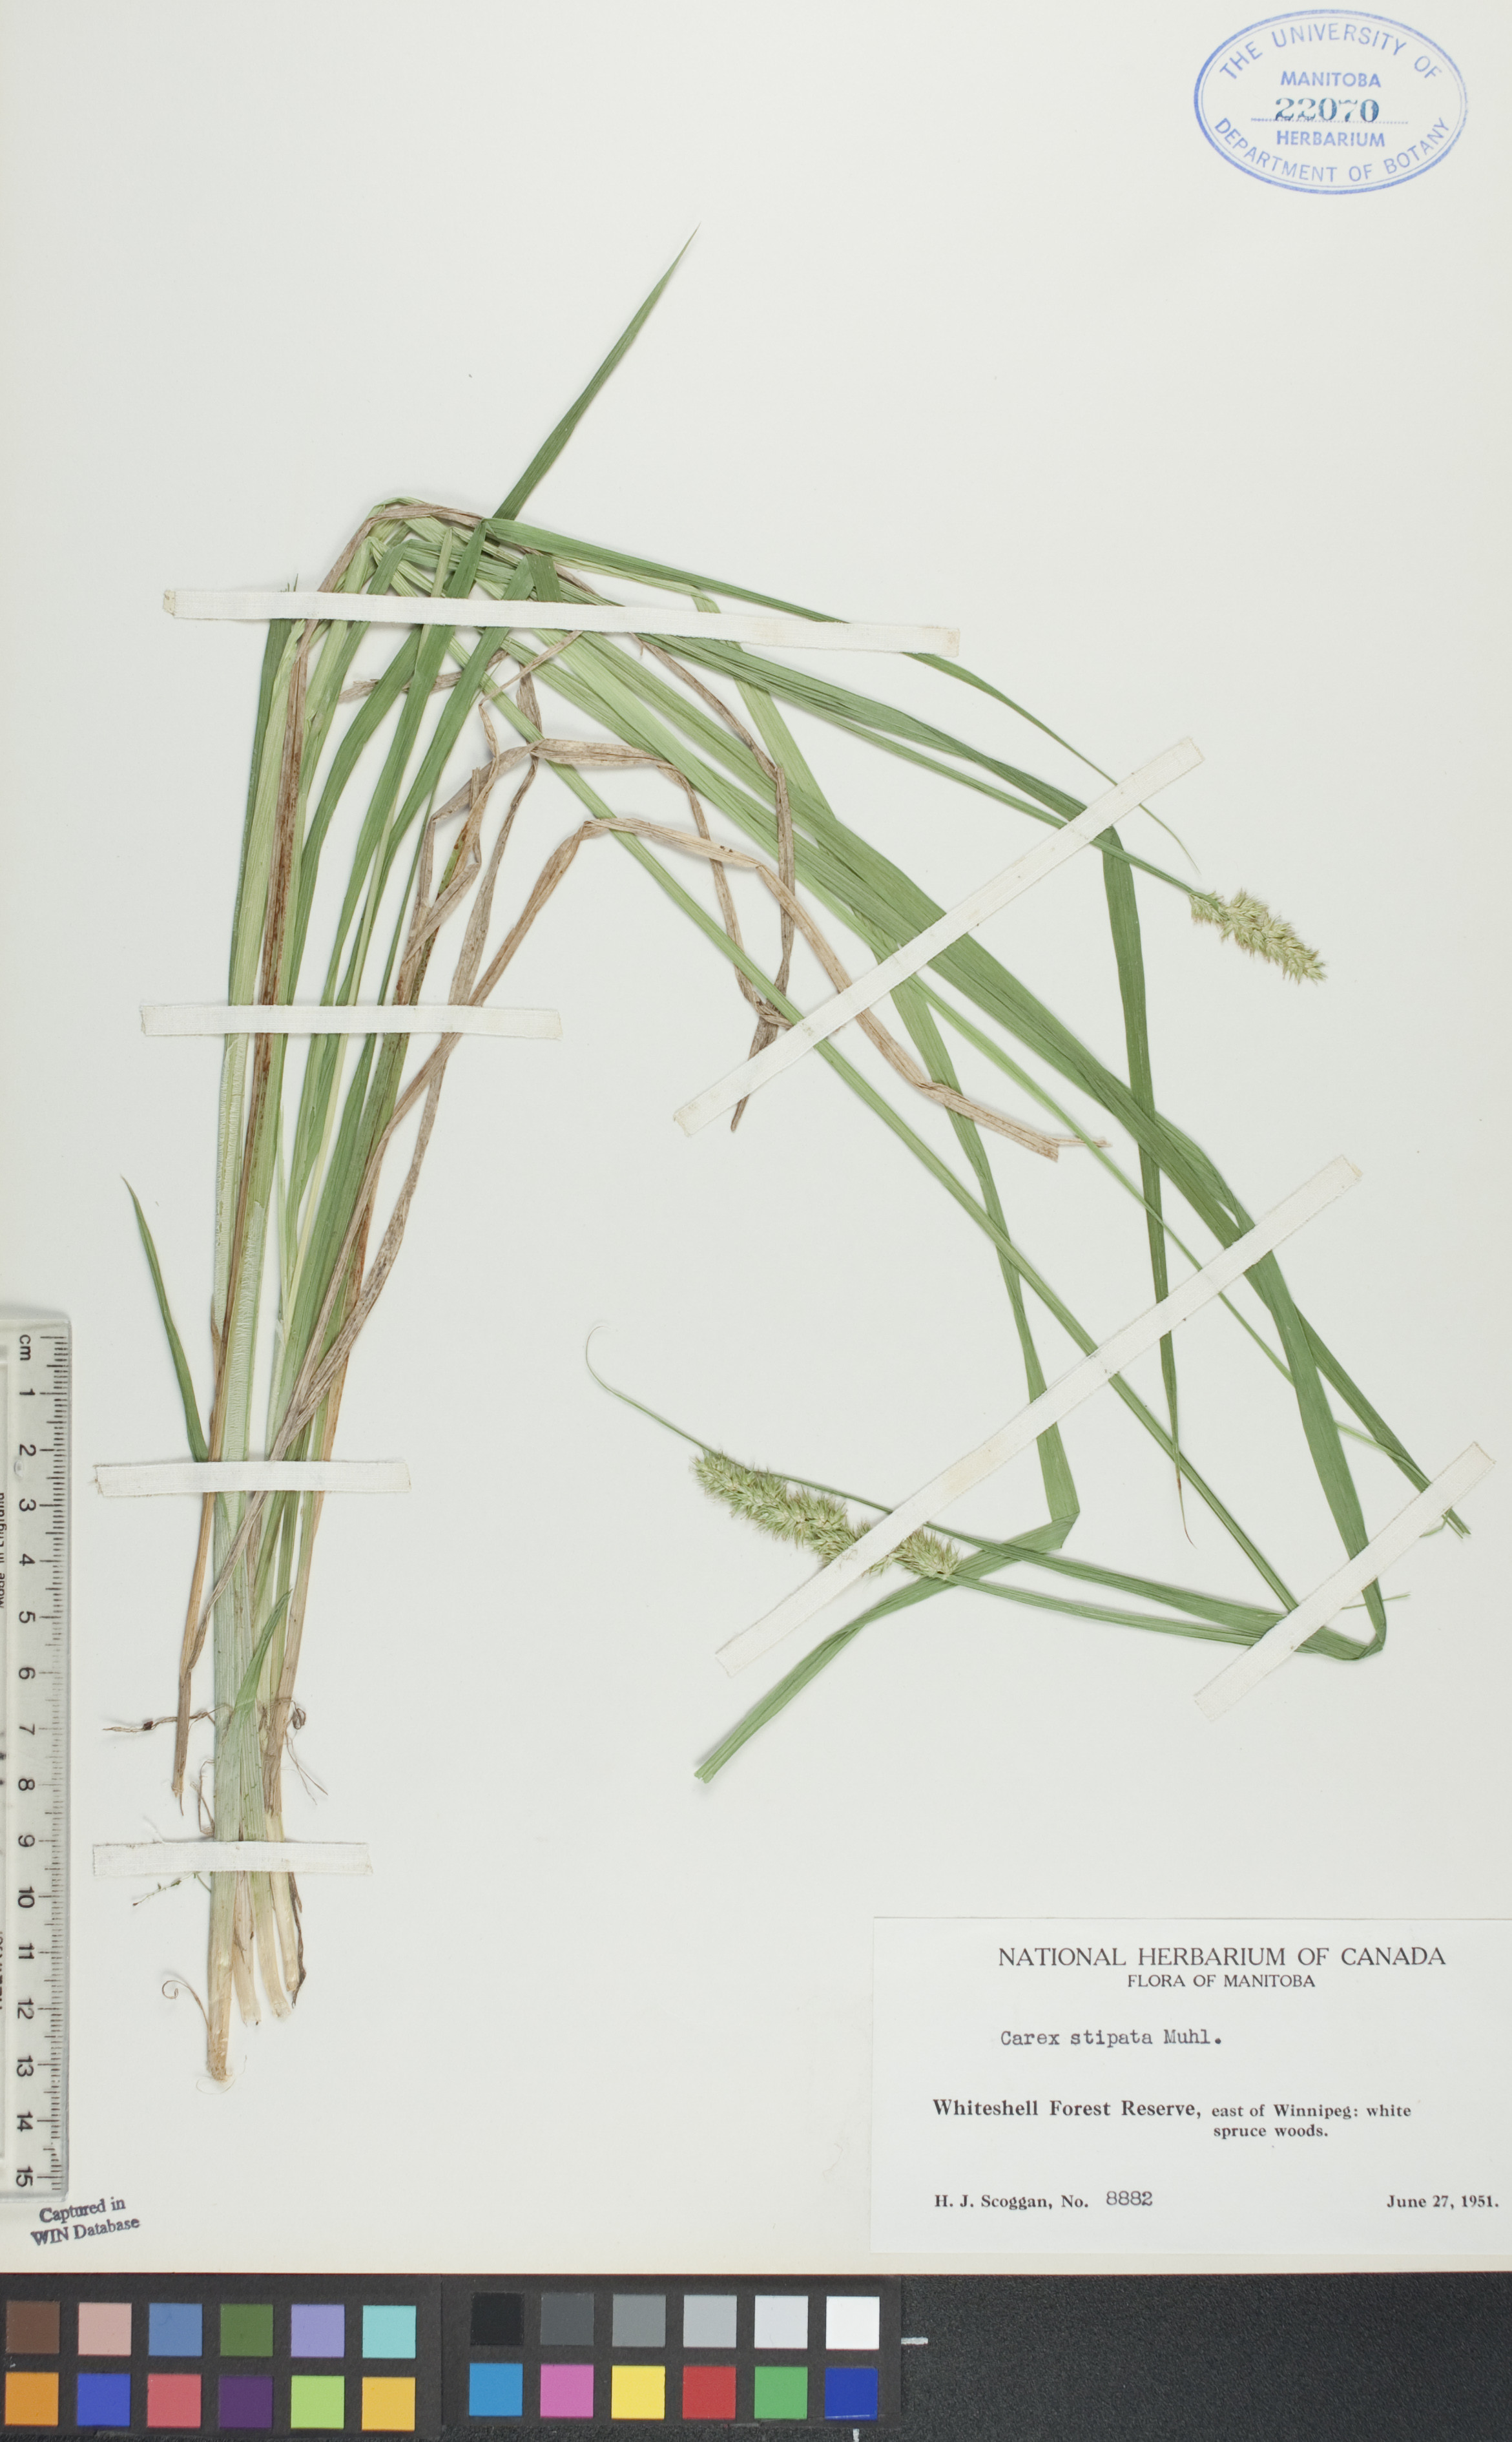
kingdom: Plantae
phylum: Tracheophyta
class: Liliopsida
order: Poales
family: Cyperaceae
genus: Carex
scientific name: Carex stipata
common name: Awl-fruited sedge
